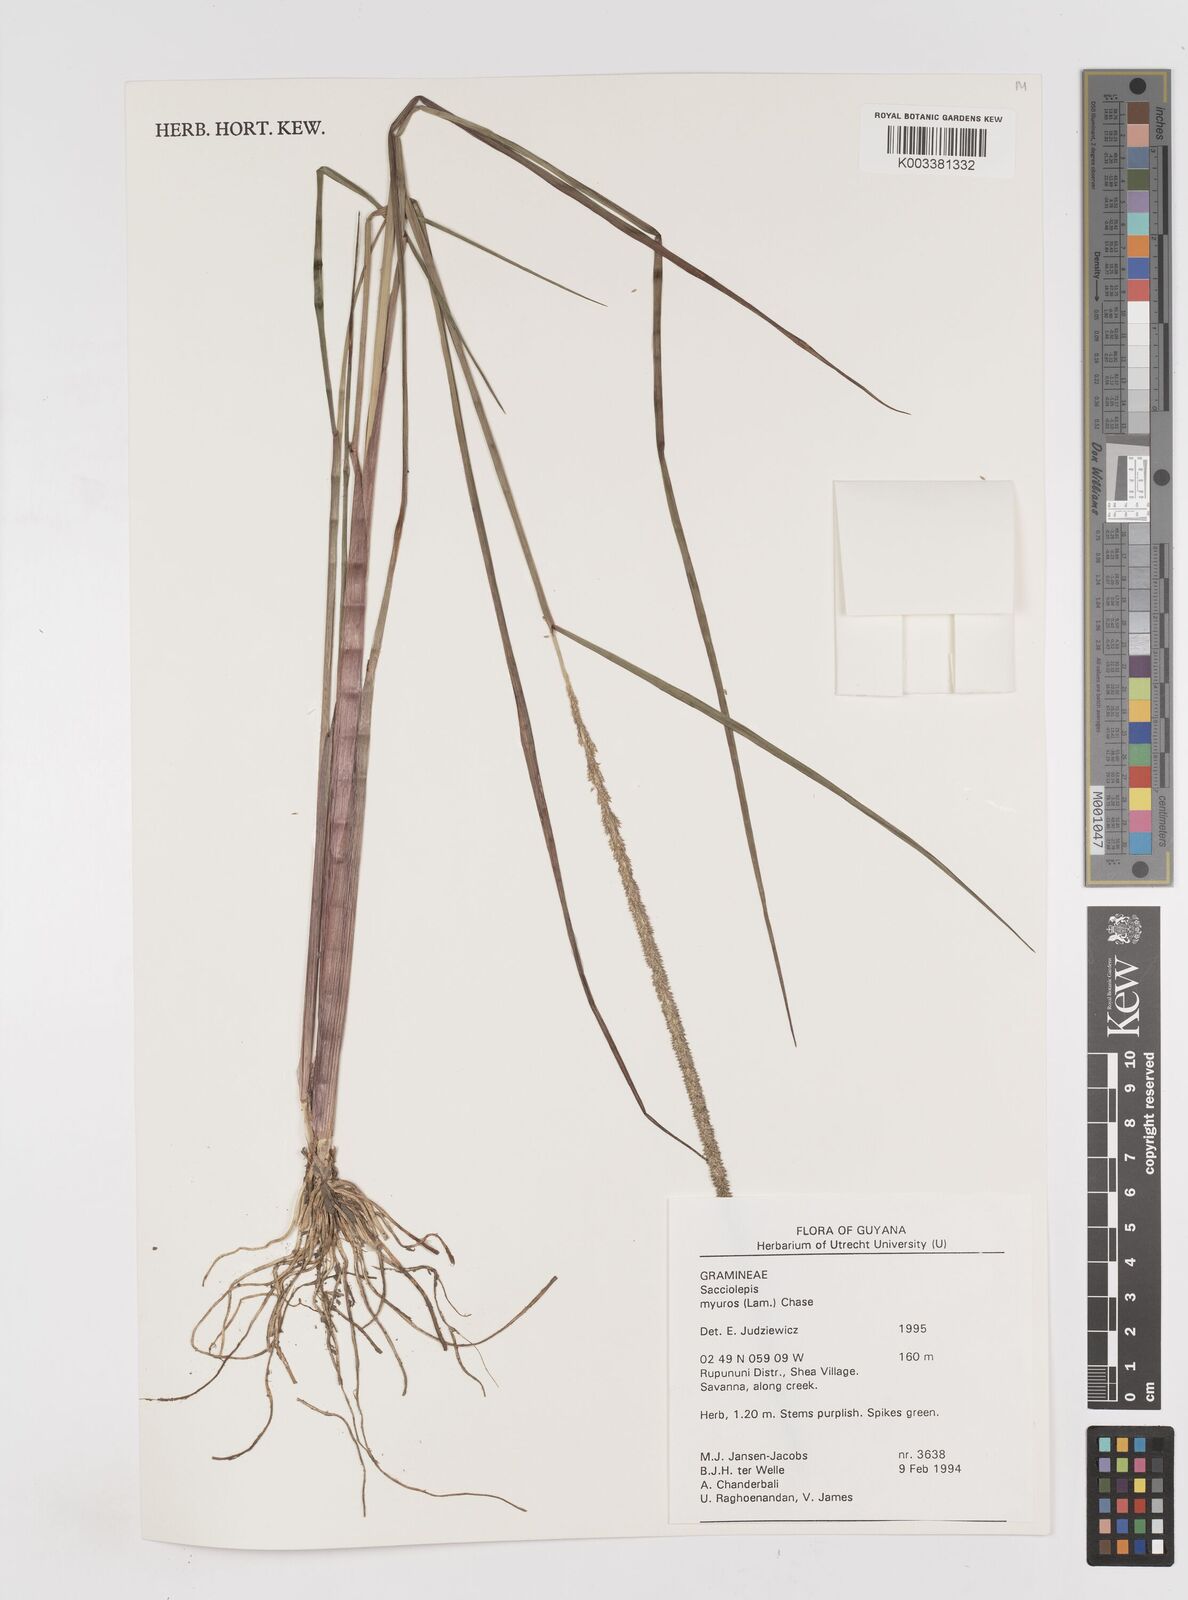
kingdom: Plantae
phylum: Tracheophyta
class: Liliopsida
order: Poales
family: Poaceae
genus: Sacciolepis
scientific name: Sacciolepis myuros
